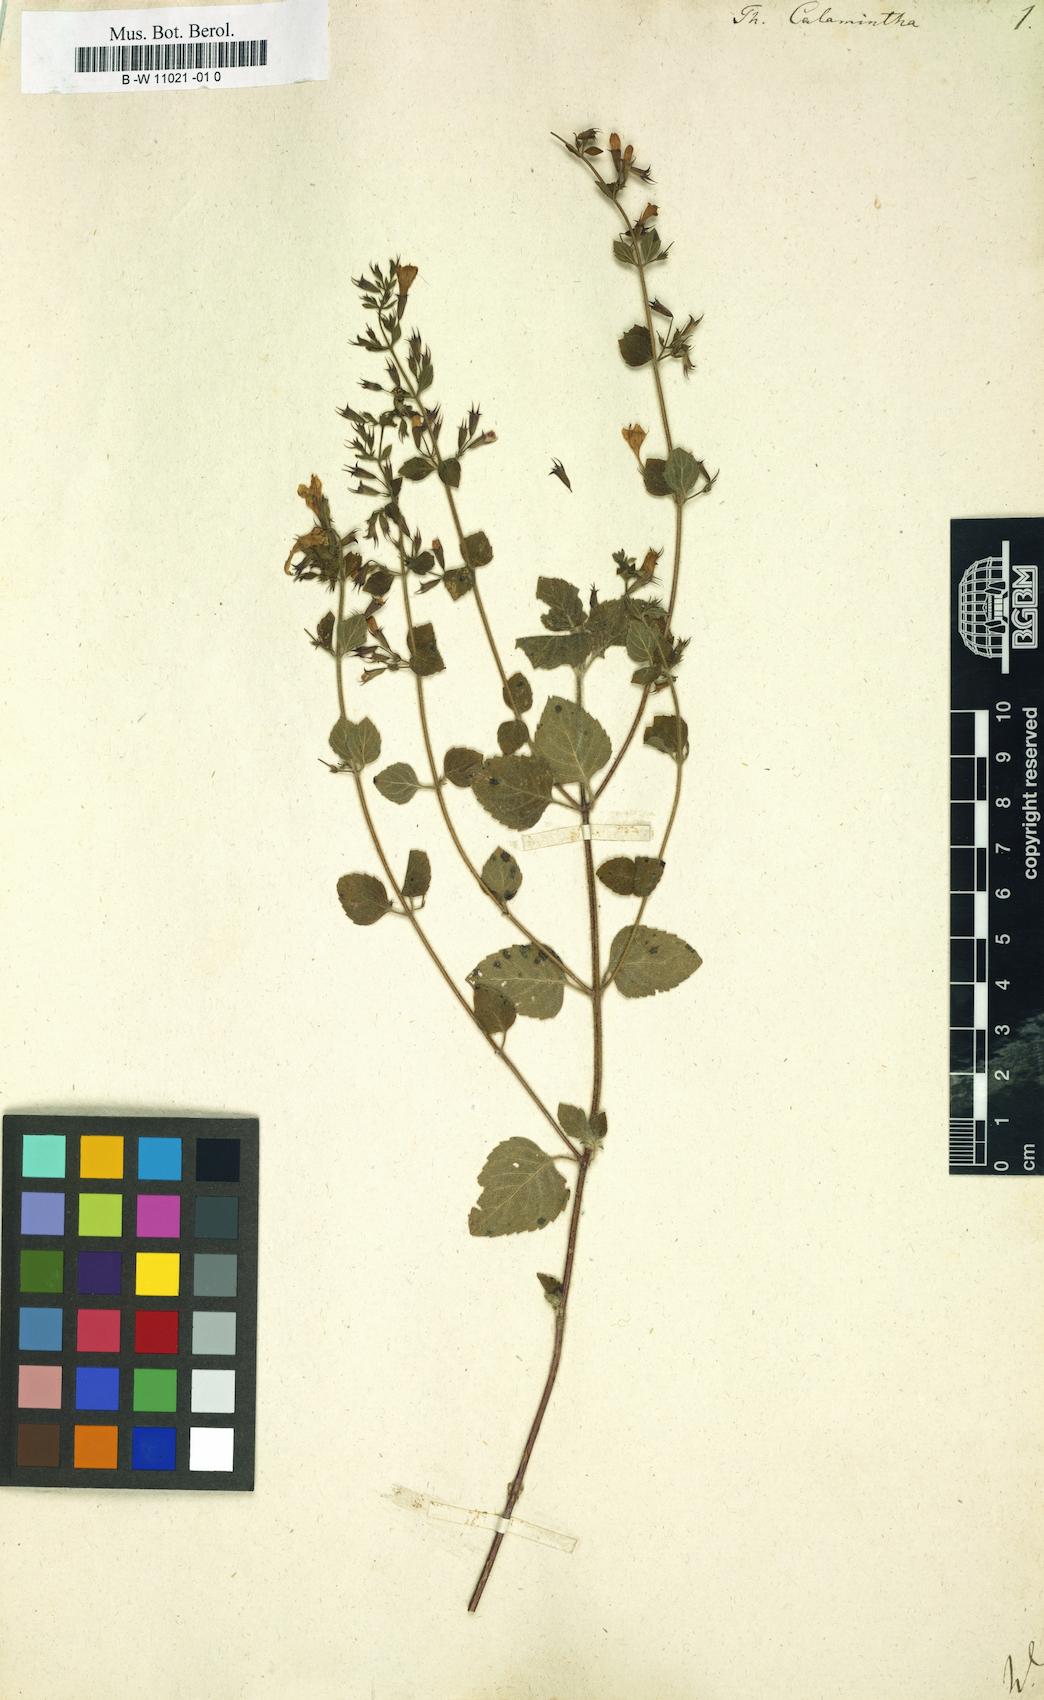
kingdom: Plantae
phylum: Tracheophyta
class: Magnoliopsida
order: Lamiales
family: Lamiaceae
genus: Clinopodium
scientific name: Clinopodium nepeta
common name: Lesser calamint
